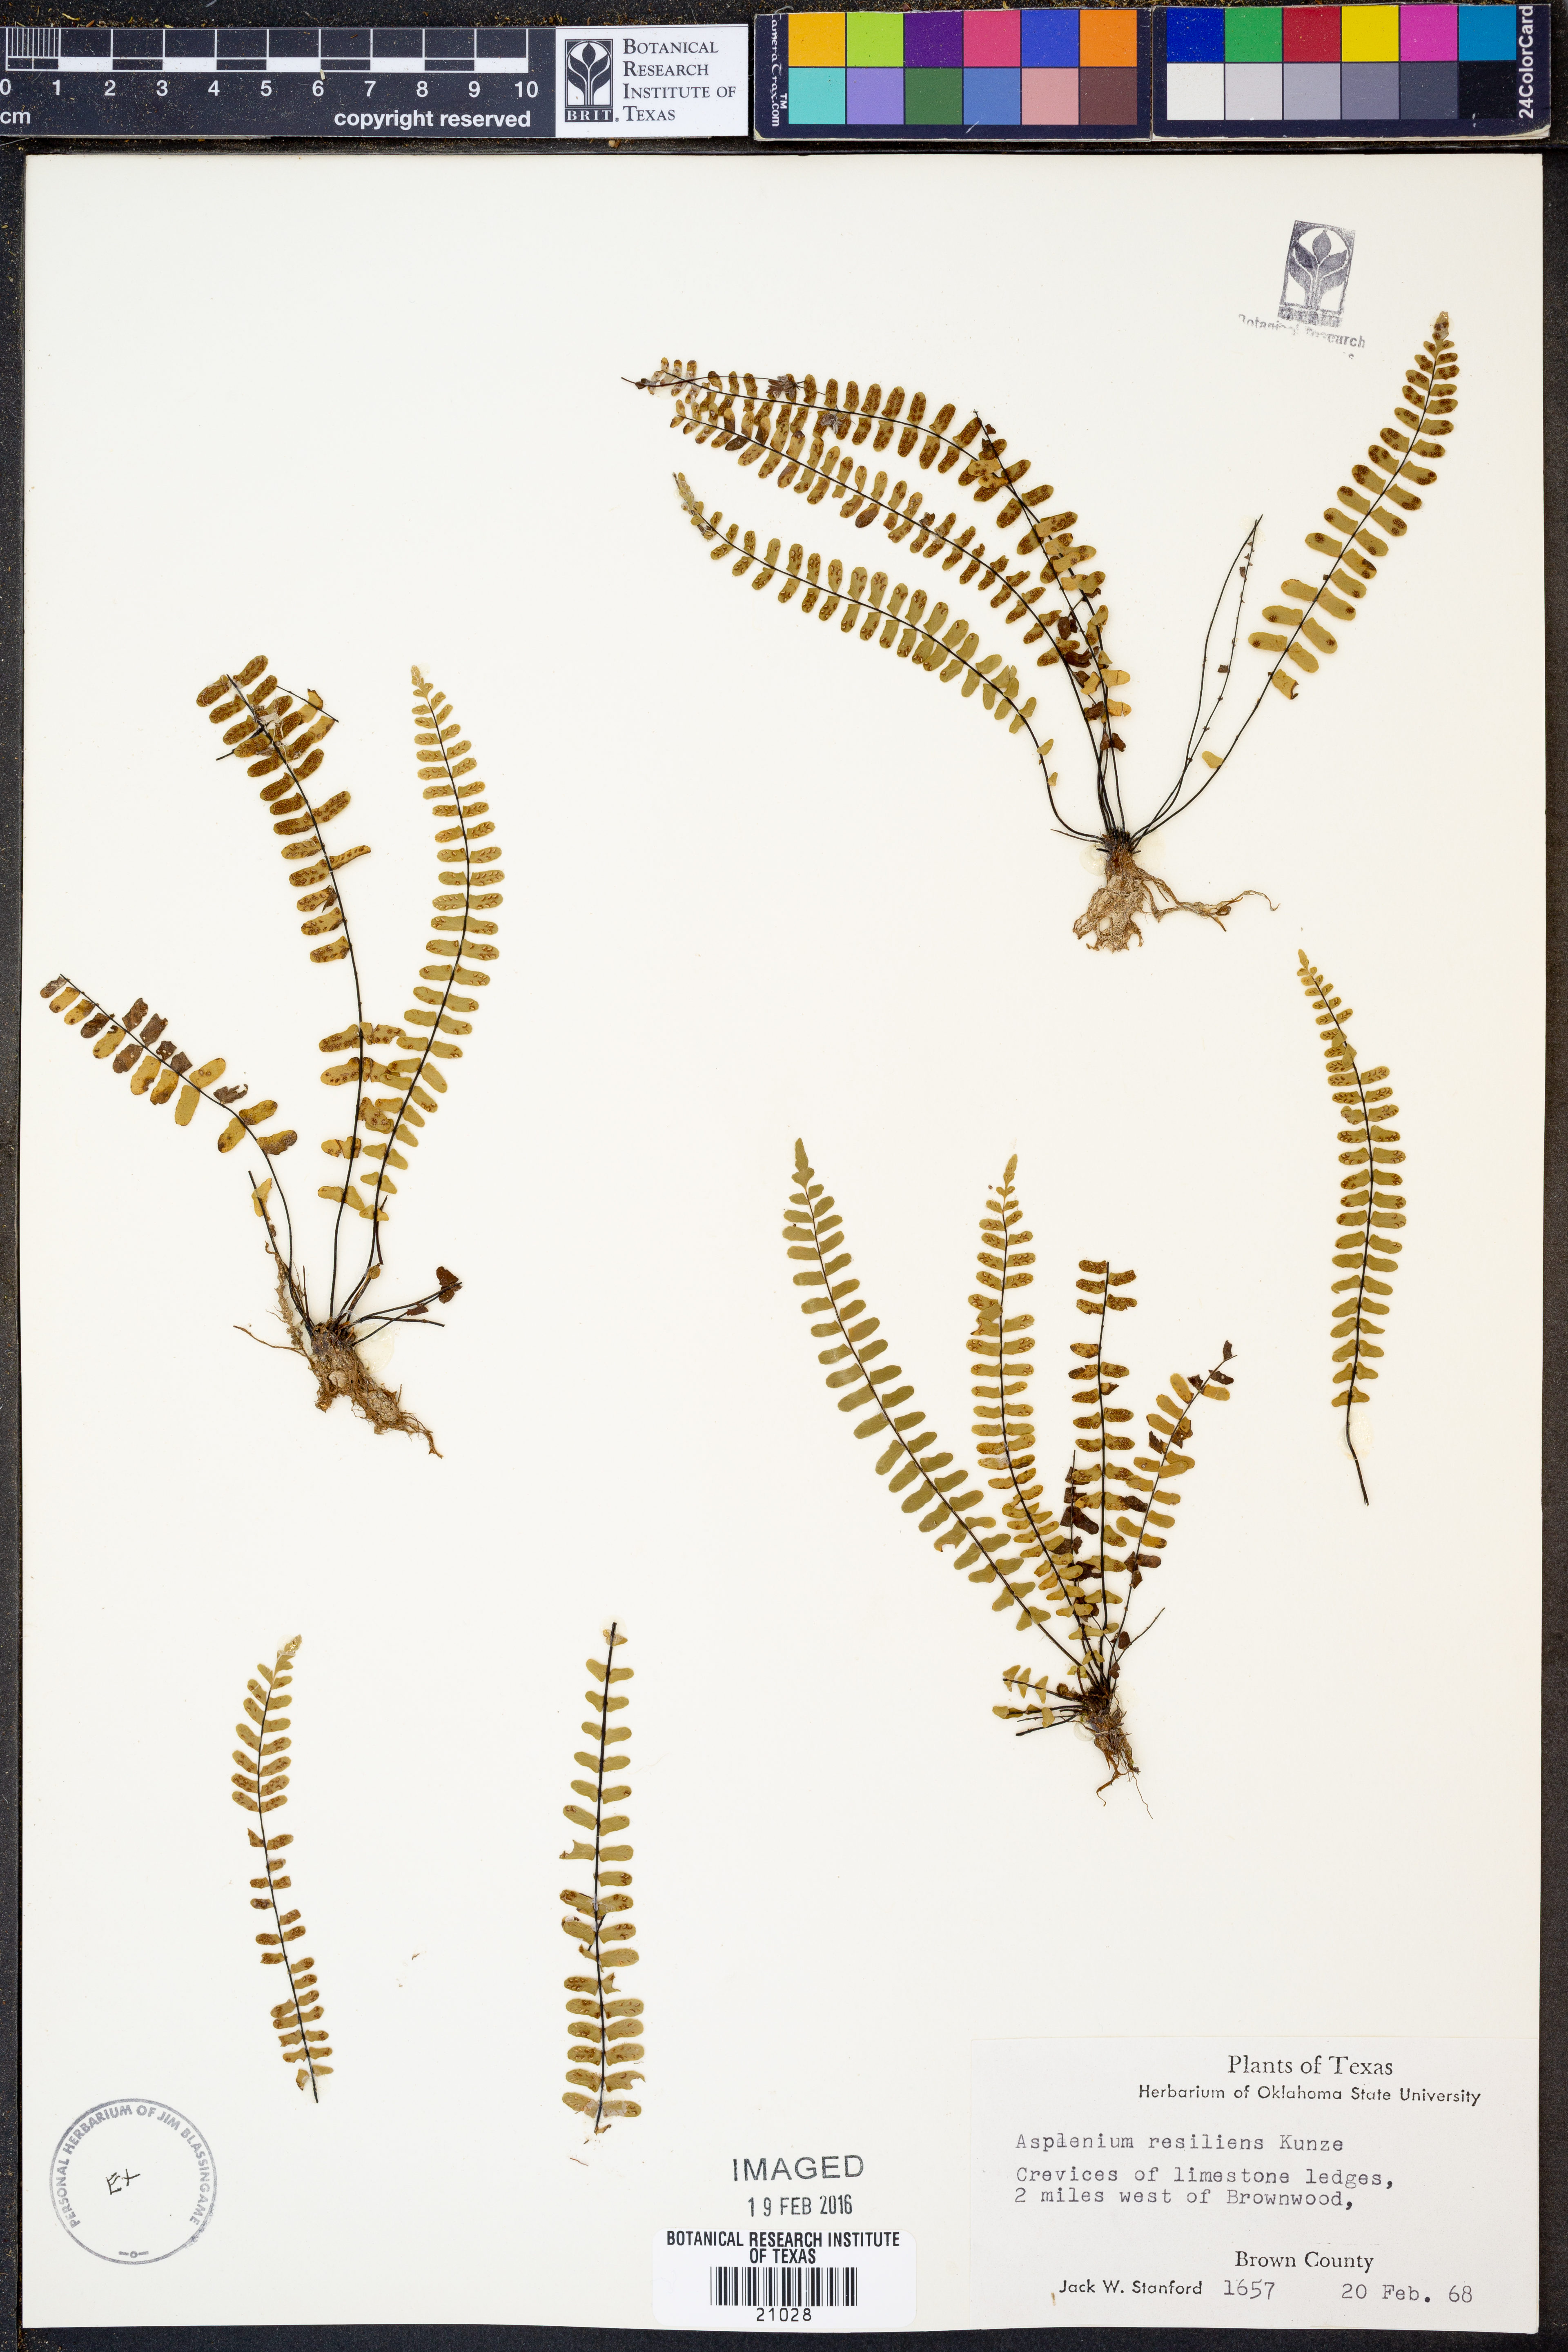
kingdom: Plantae
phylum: Tracheophyta
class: Polypodiopsida
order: Polypodiales
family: Aspleniaceae
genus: Asplenium
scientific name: Asplenium resiliens
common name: Blackstem spleenwort
